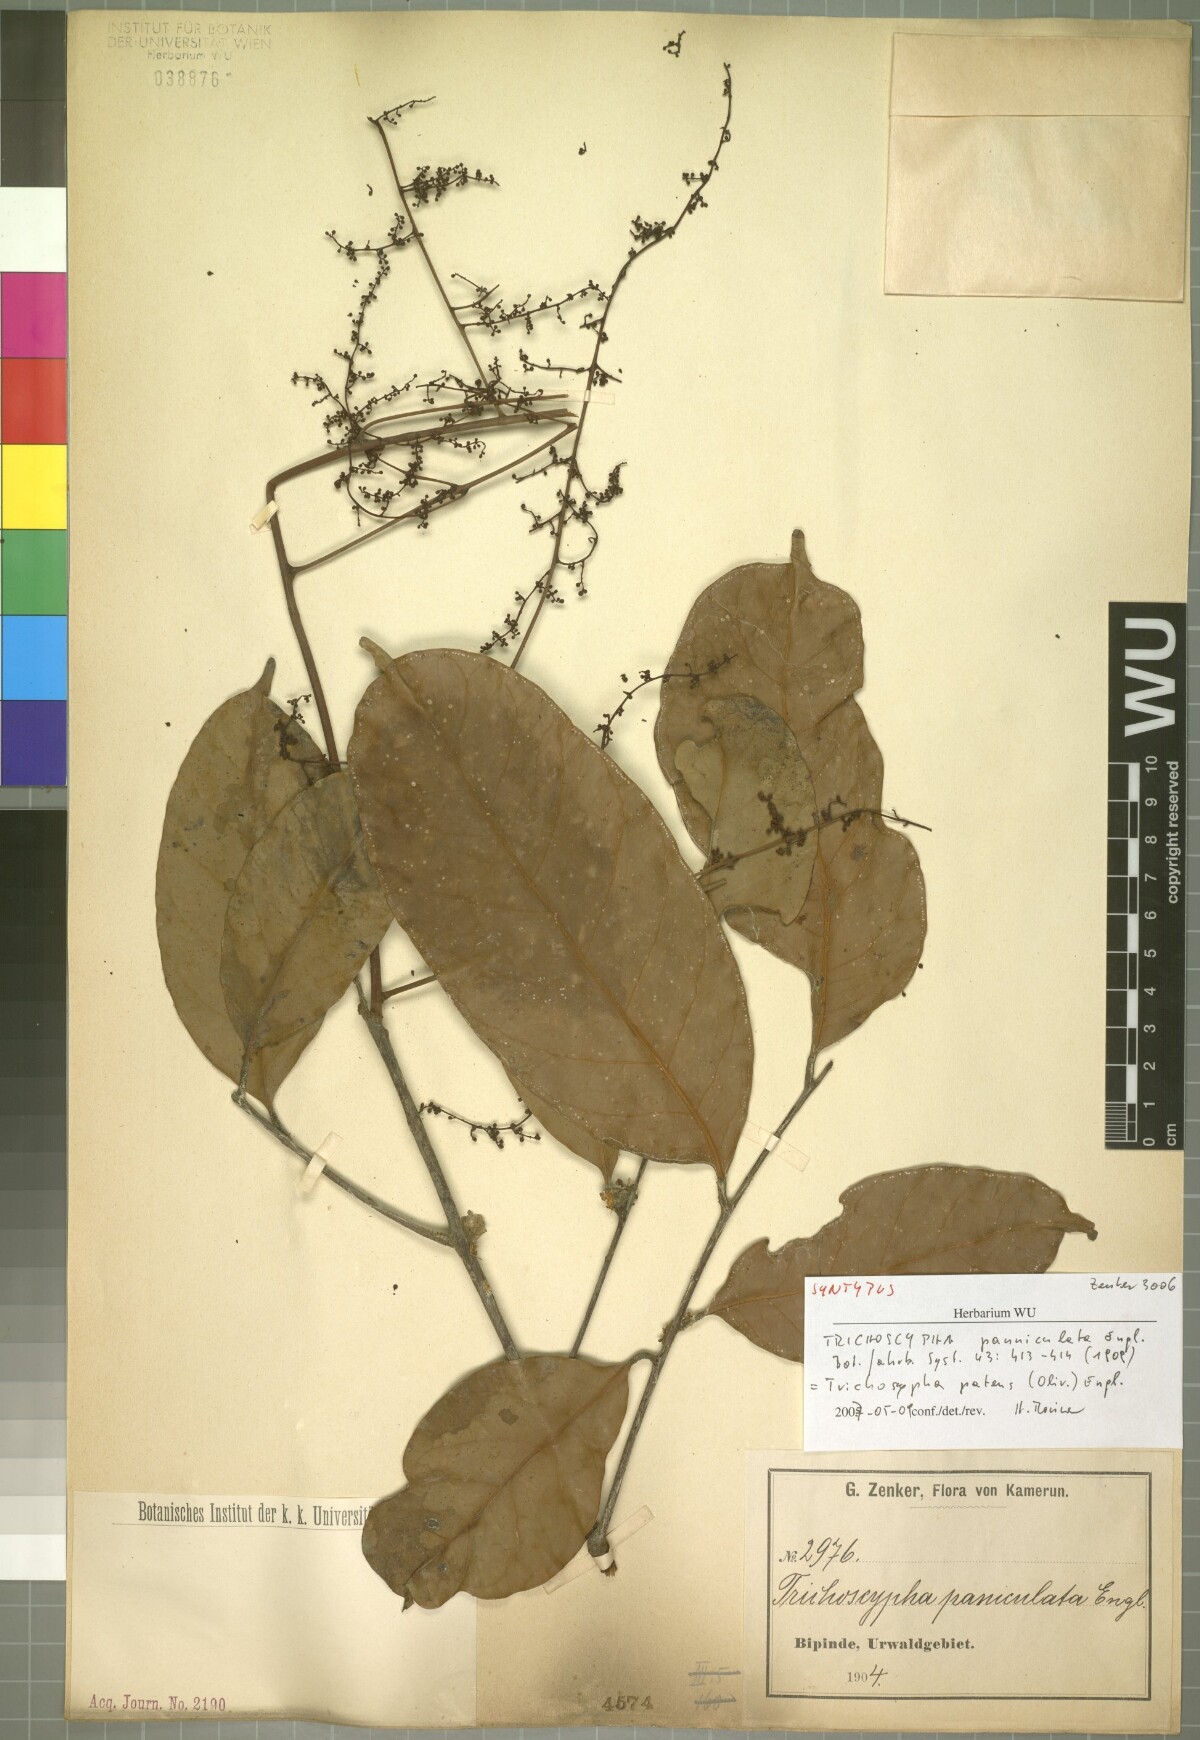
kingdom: Plantae
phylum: Tracheophyta
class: Magnoliopsida
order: Sapindales
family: Anacardiaceae
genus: Trichoscypha
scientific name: Trichoscypha patens
